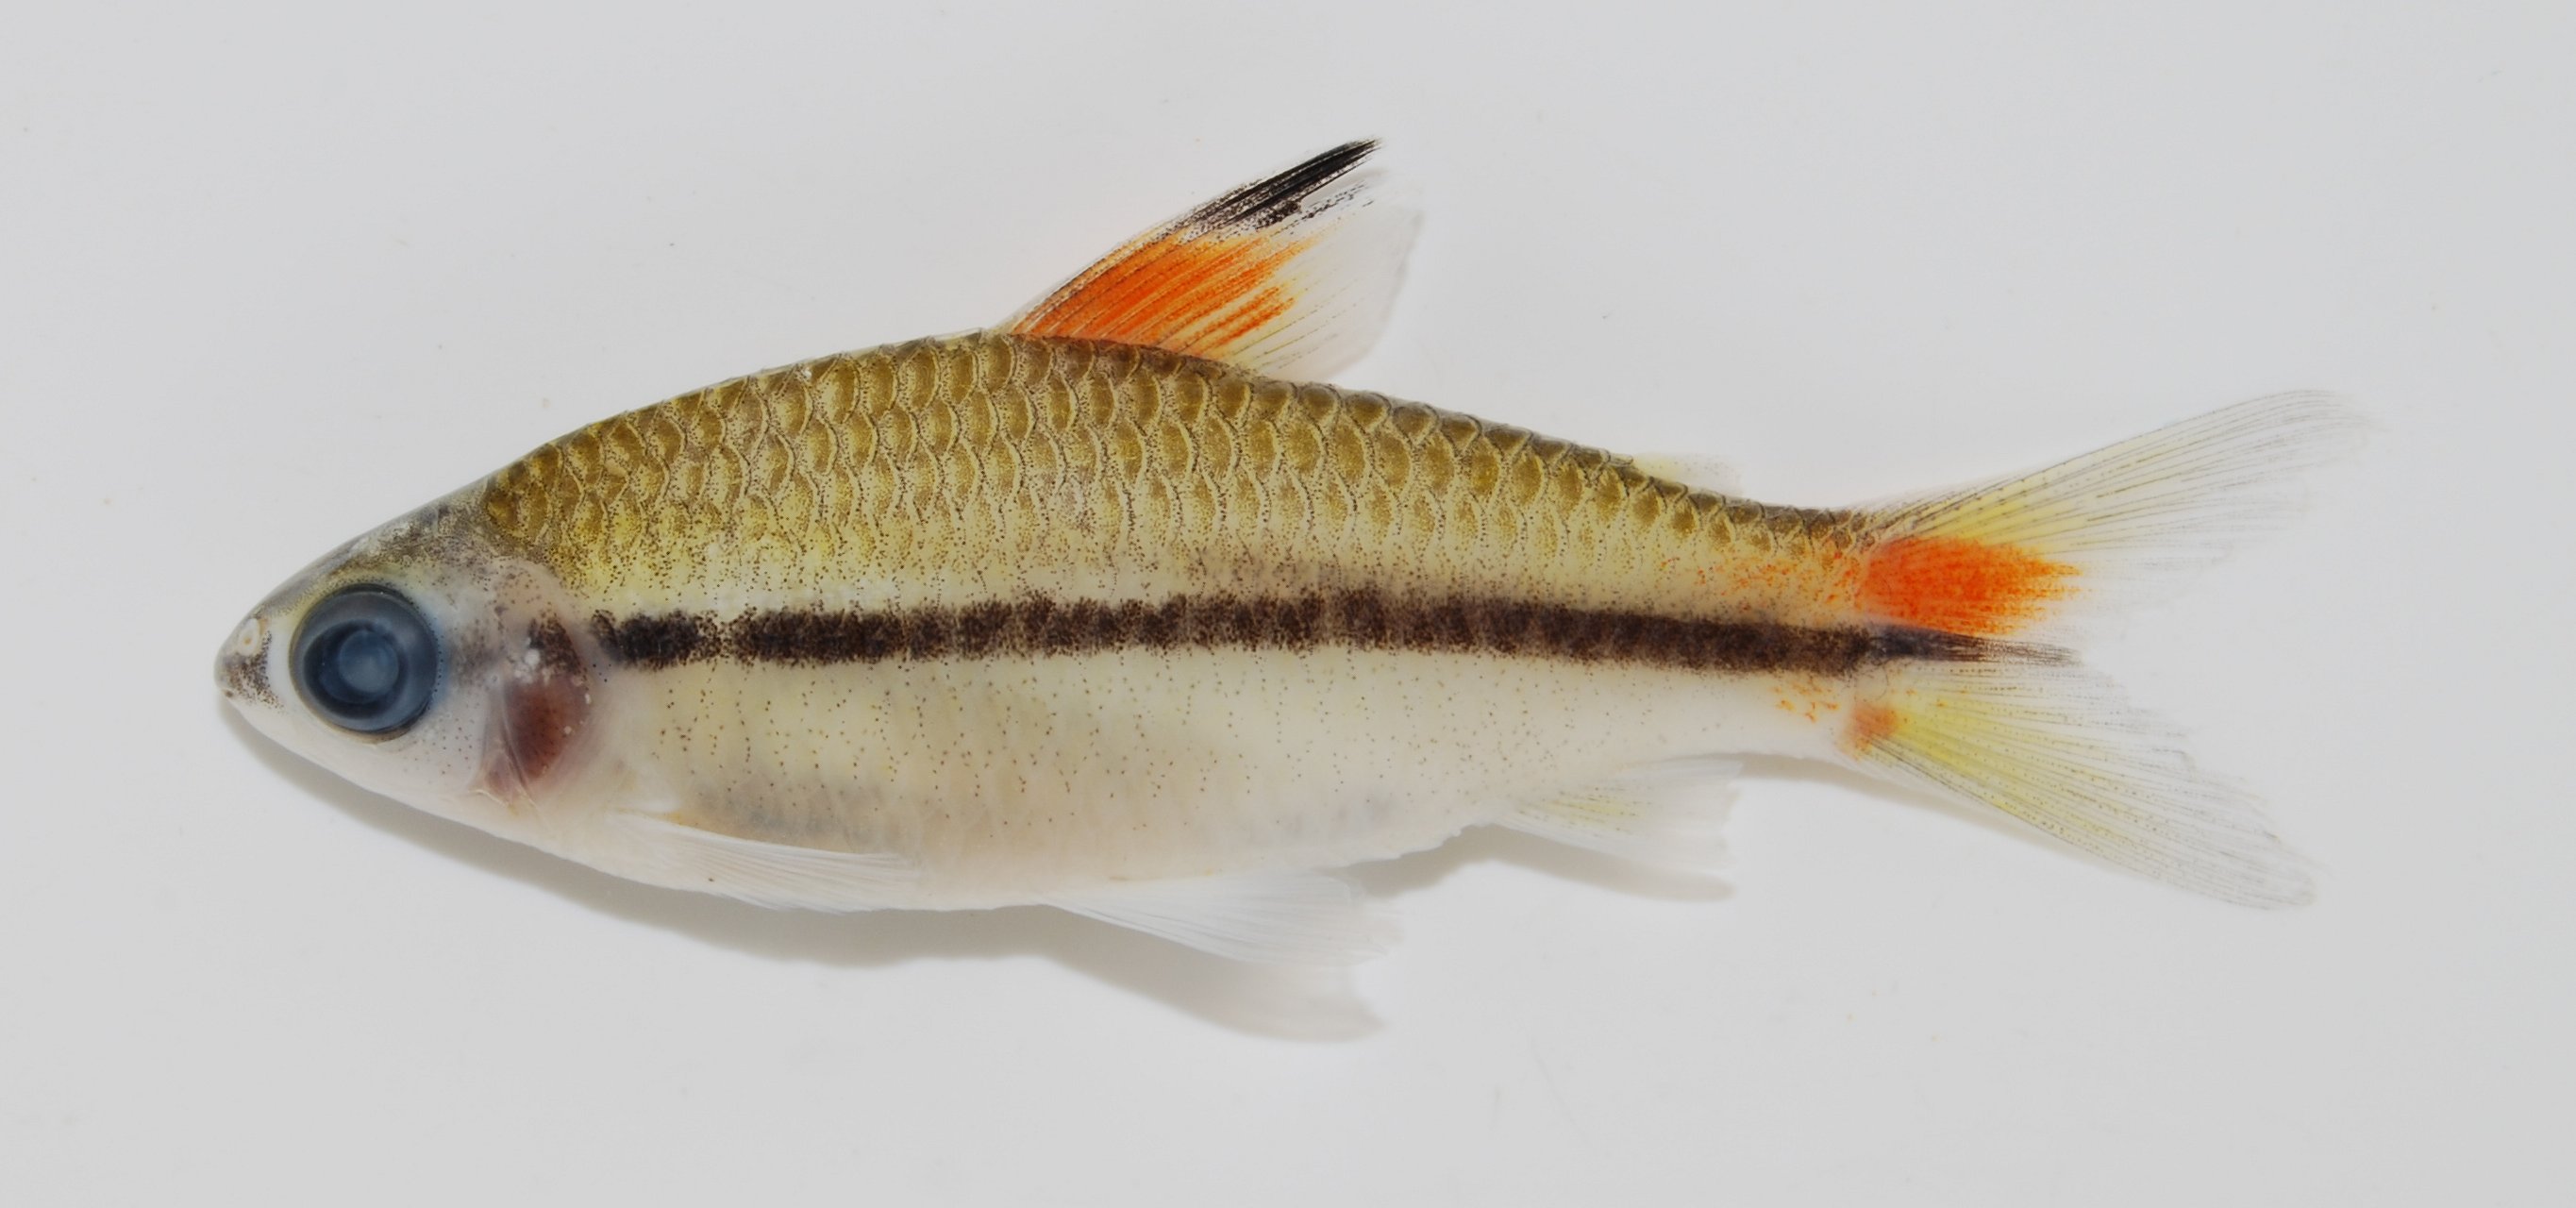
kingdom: Animalia
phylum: Chordata
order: Cypriniformes
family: Cyprinidae
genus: Enteromius
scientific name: Enteromius holotaenia
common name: Spotscale barb
